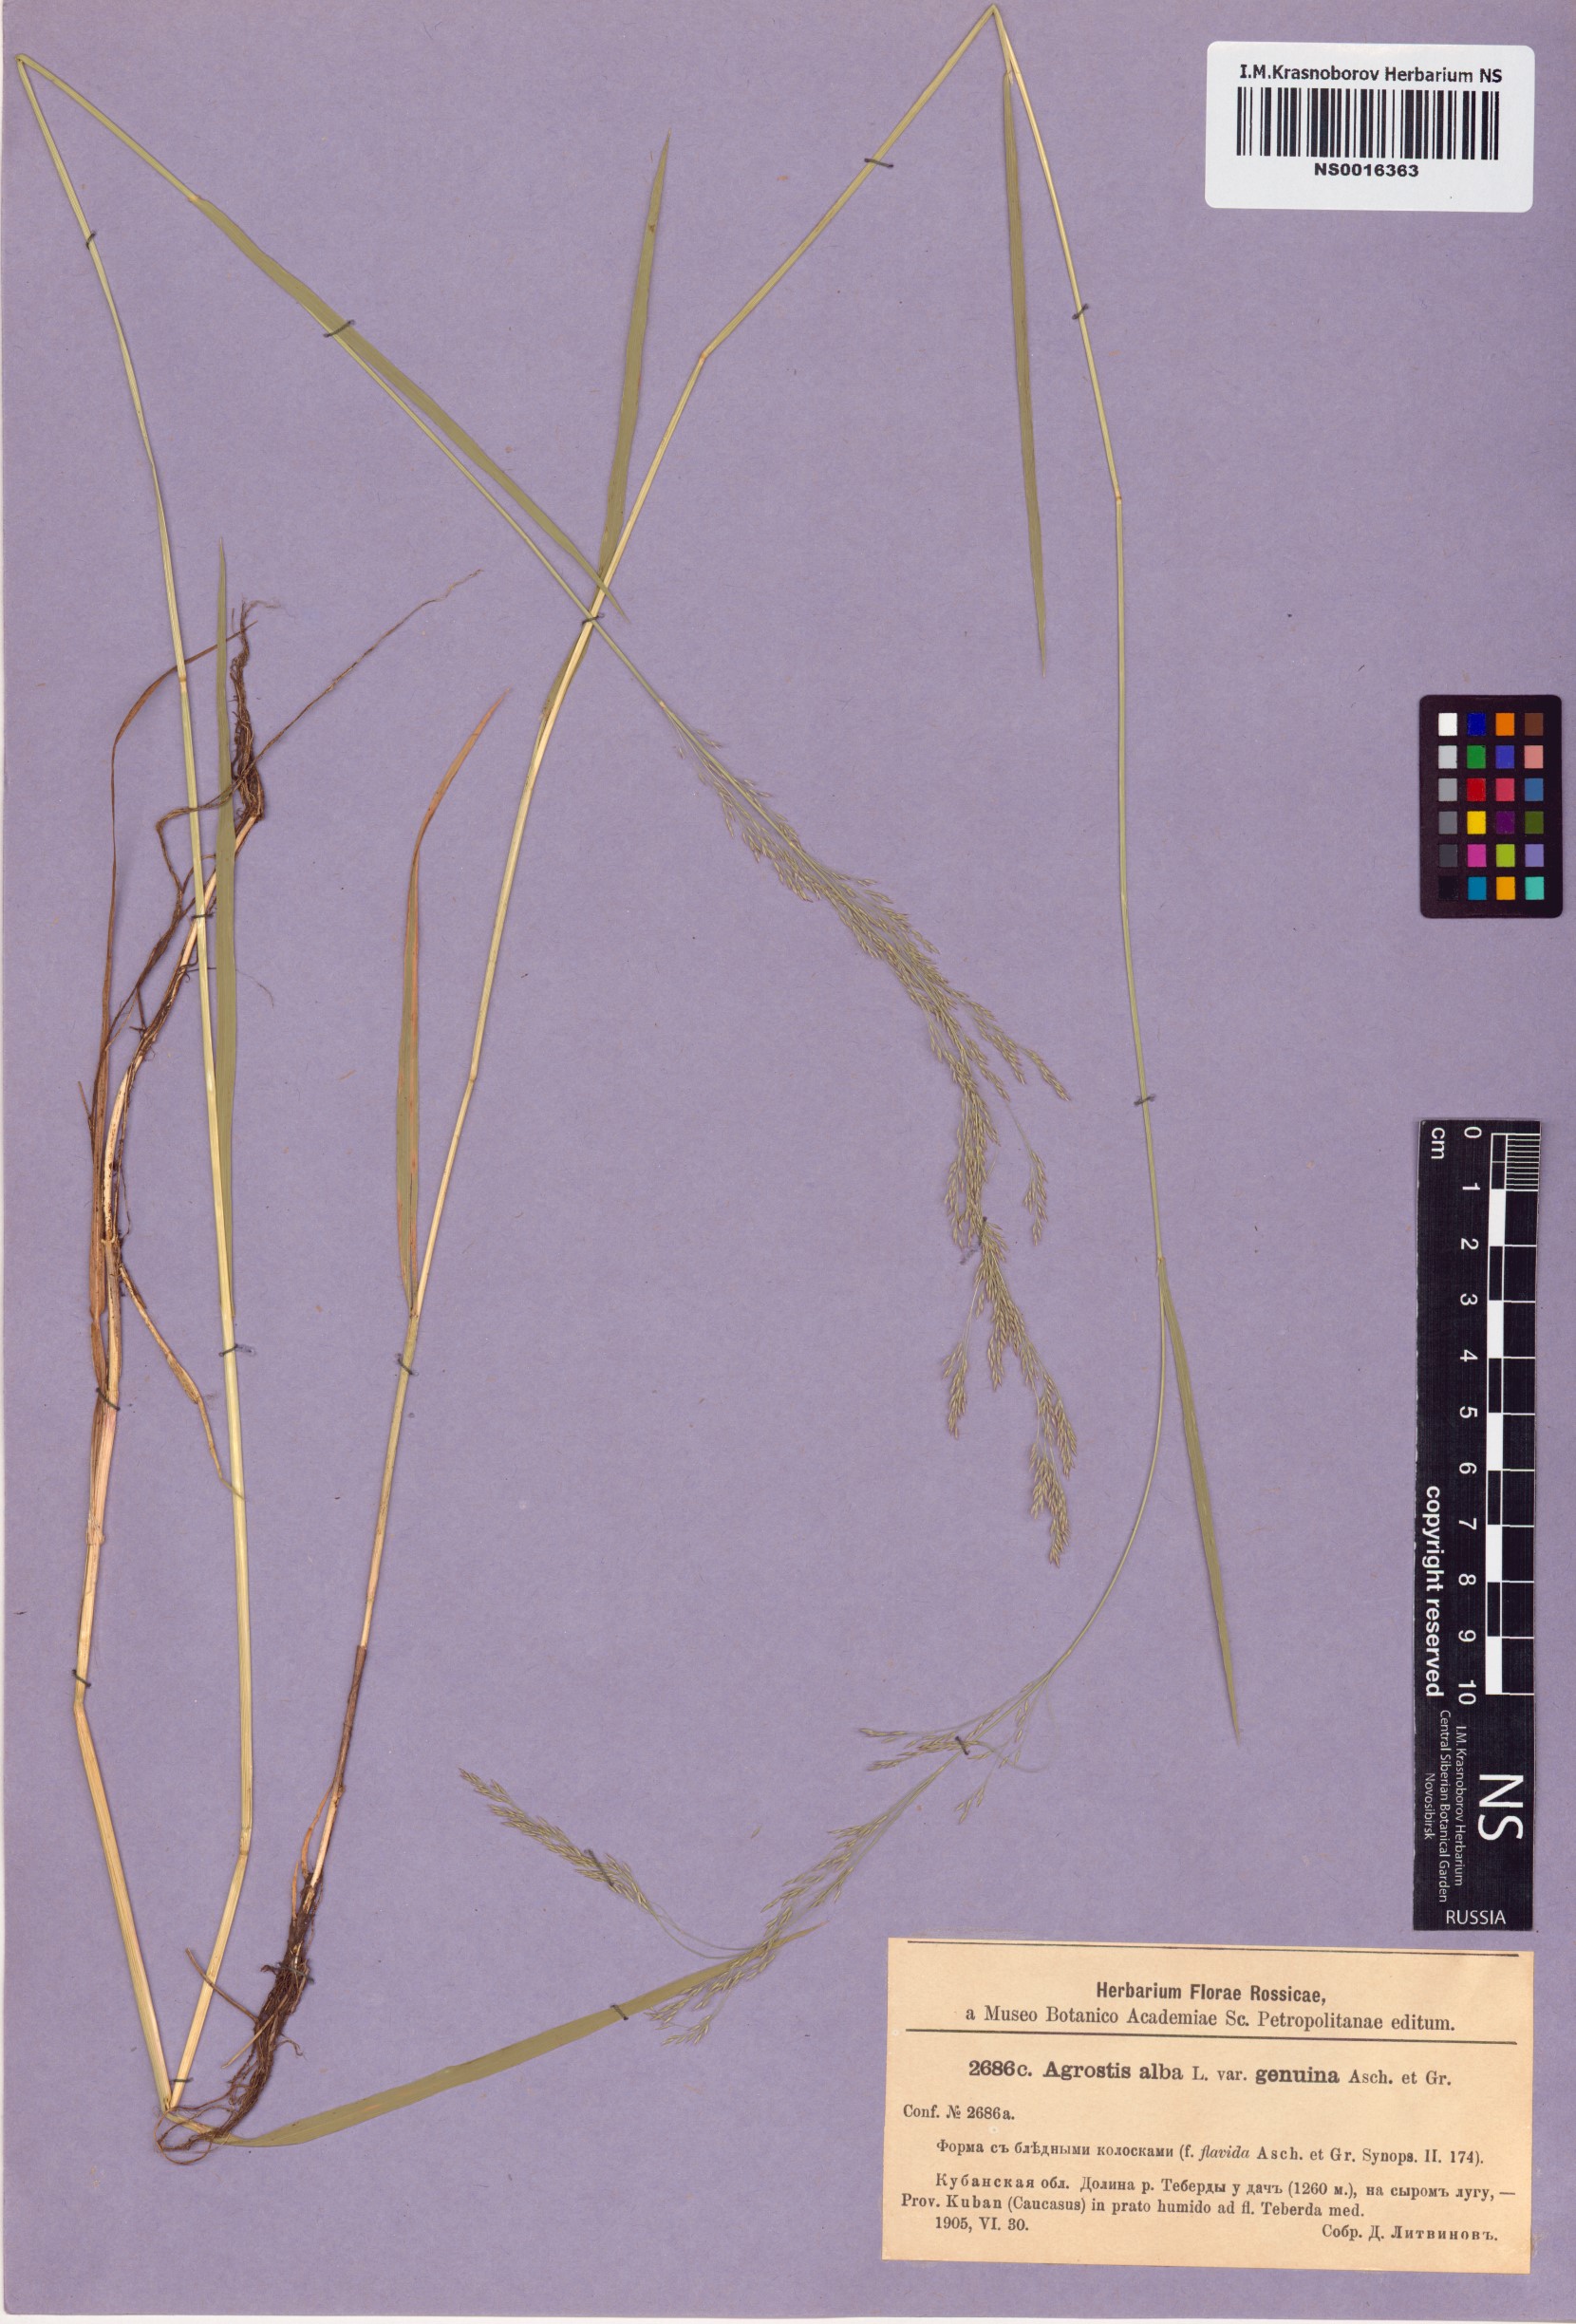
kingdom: Plantae
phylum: Tracheophyta
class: Liliopsida
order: Poales
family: Poaceae
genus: Poa
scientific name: Poa nemoralis
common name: Wood bluegrass
